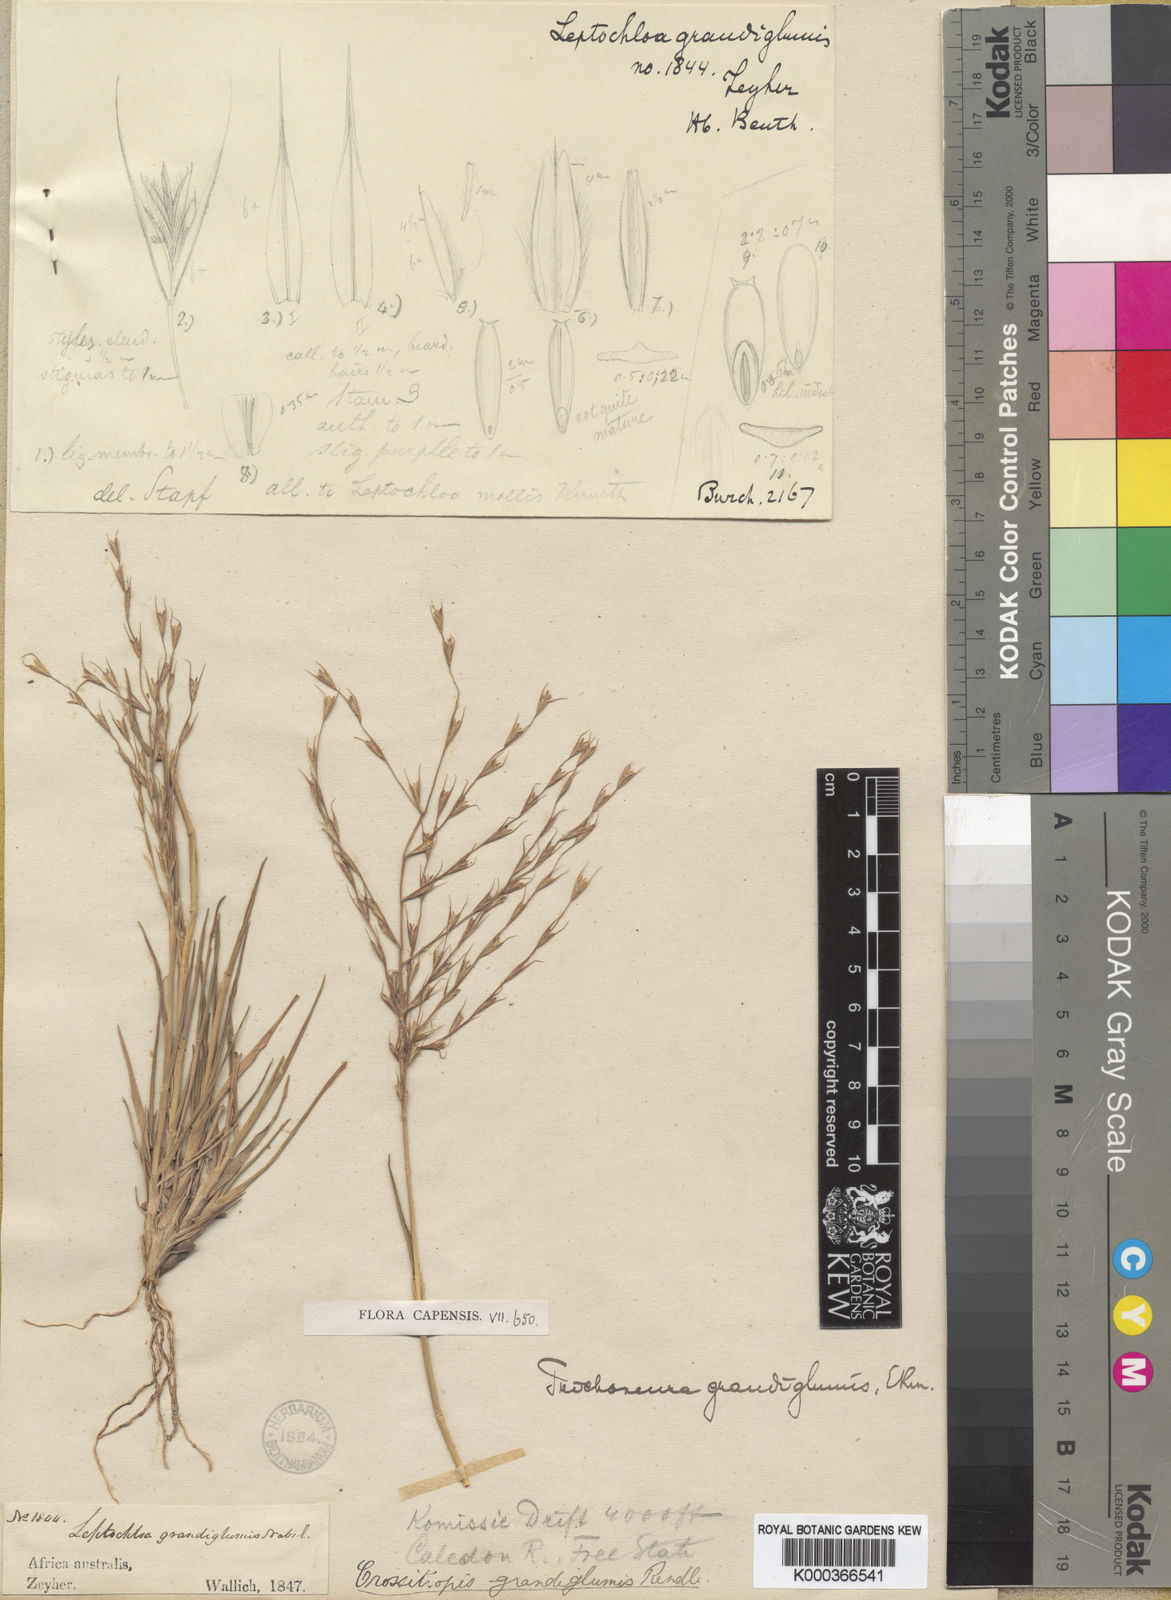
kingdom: Plantae
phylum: Tracheophyta
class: Liliopsida
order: Poales
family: Poaceae
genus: Trichoneura
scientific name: Trichoneura grandiglumis
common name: Rolling grass
